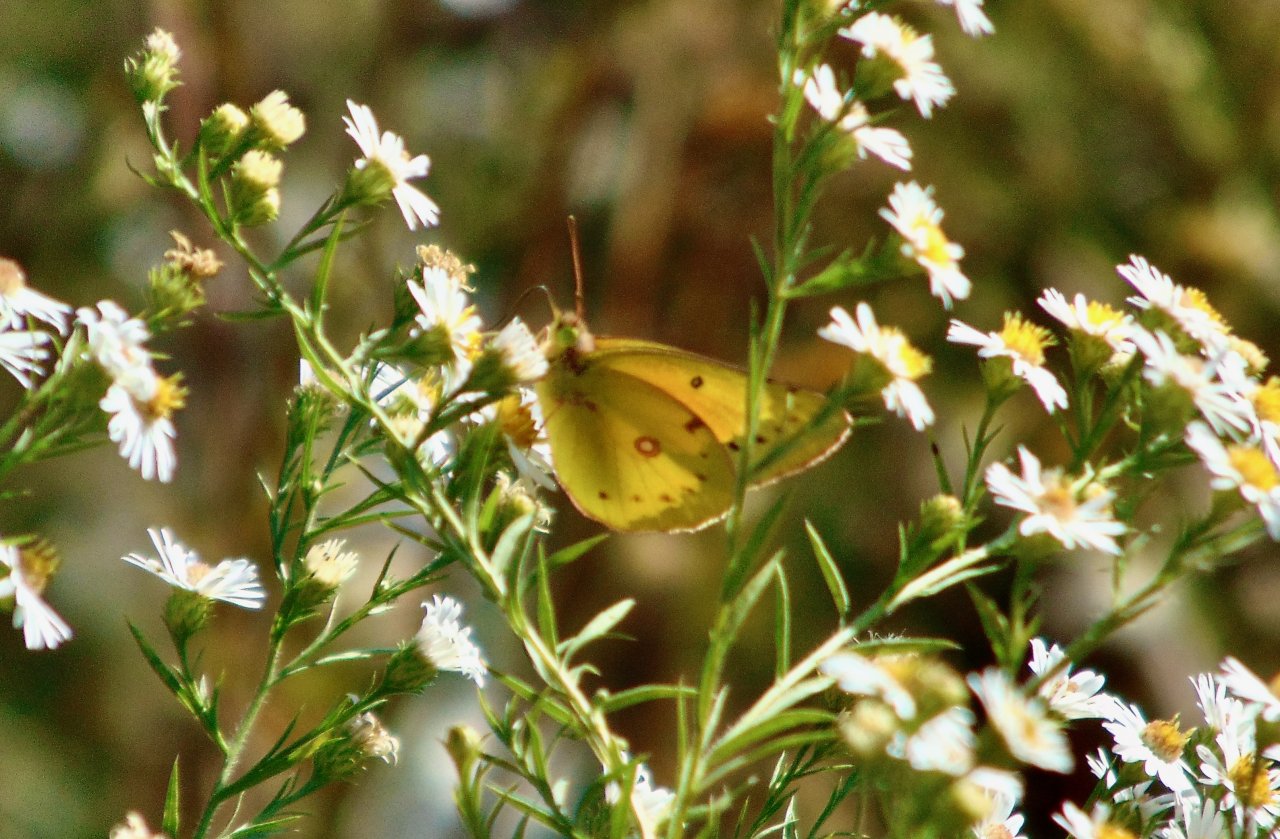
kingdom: Animalia
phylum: Arthropoda
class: Insecta
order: Lepidoptera
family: Pieridae
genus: Colias
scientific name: Colias eurytheme
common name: Orange Sulphur
